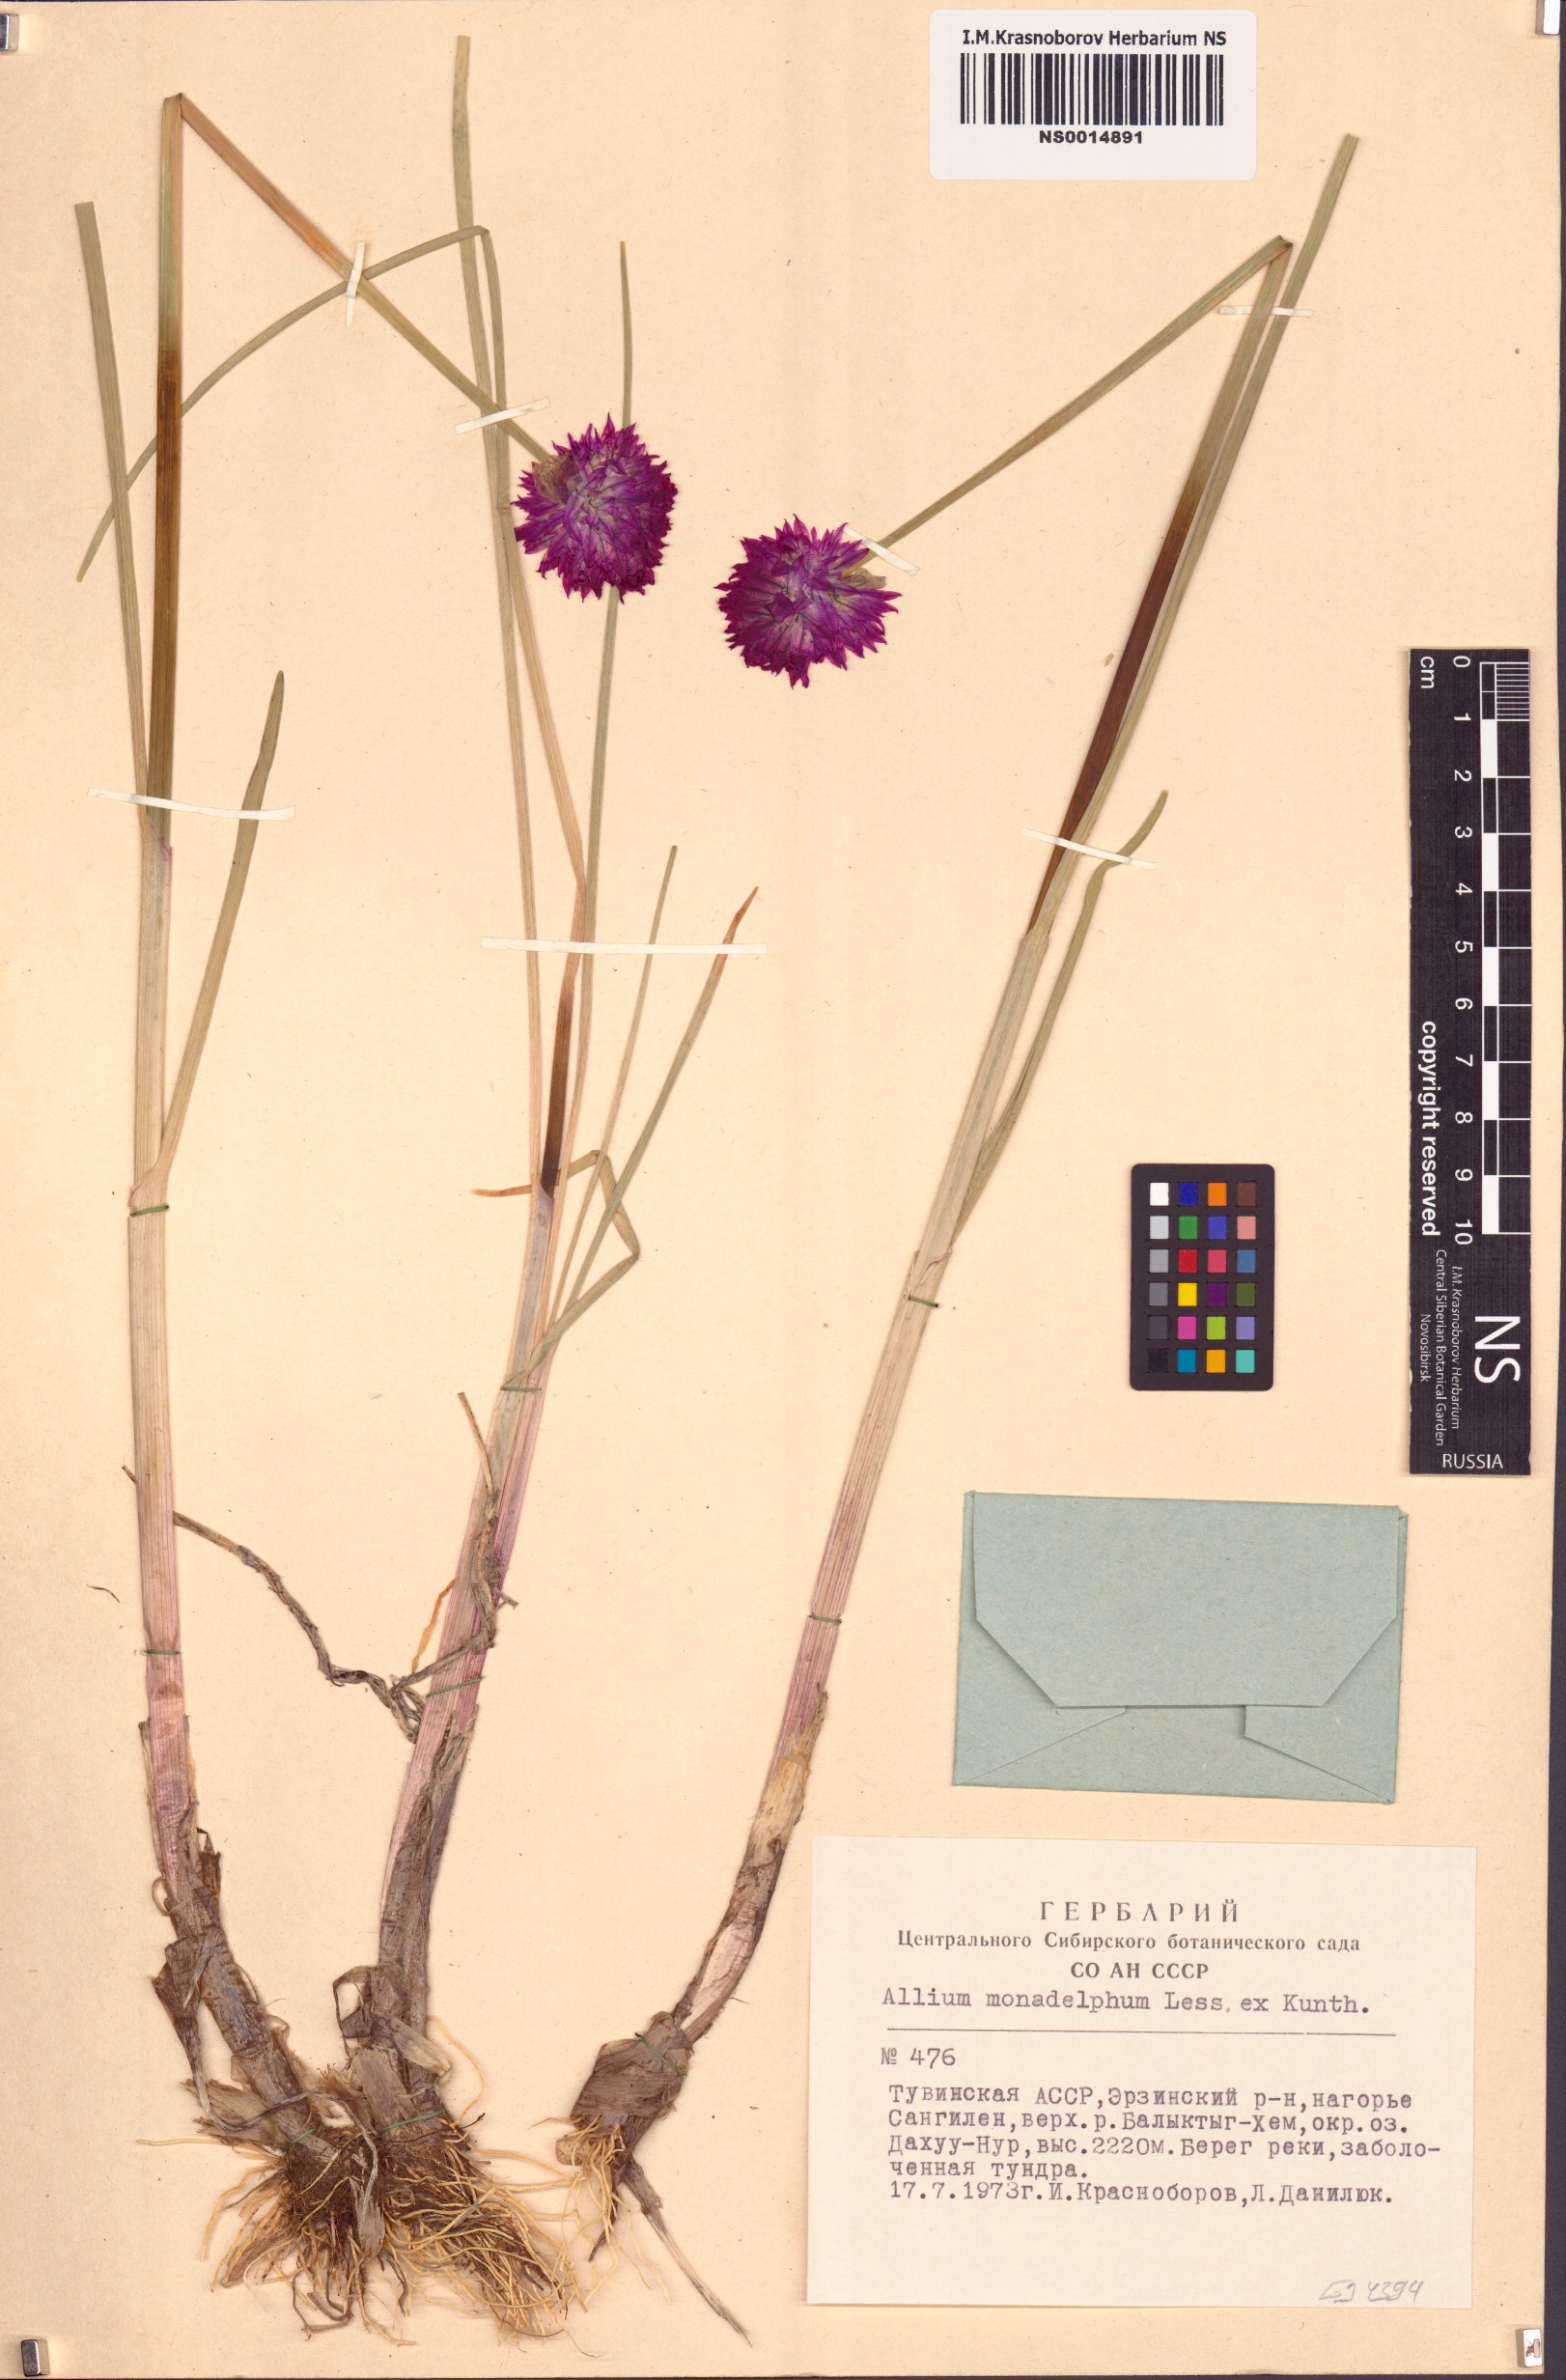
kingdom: Plantae
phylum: Tracheophyta
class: Liliopsida
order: Asparagales
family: Amaryllidaceae
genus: Allium
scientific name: Allium atrosanguineum
